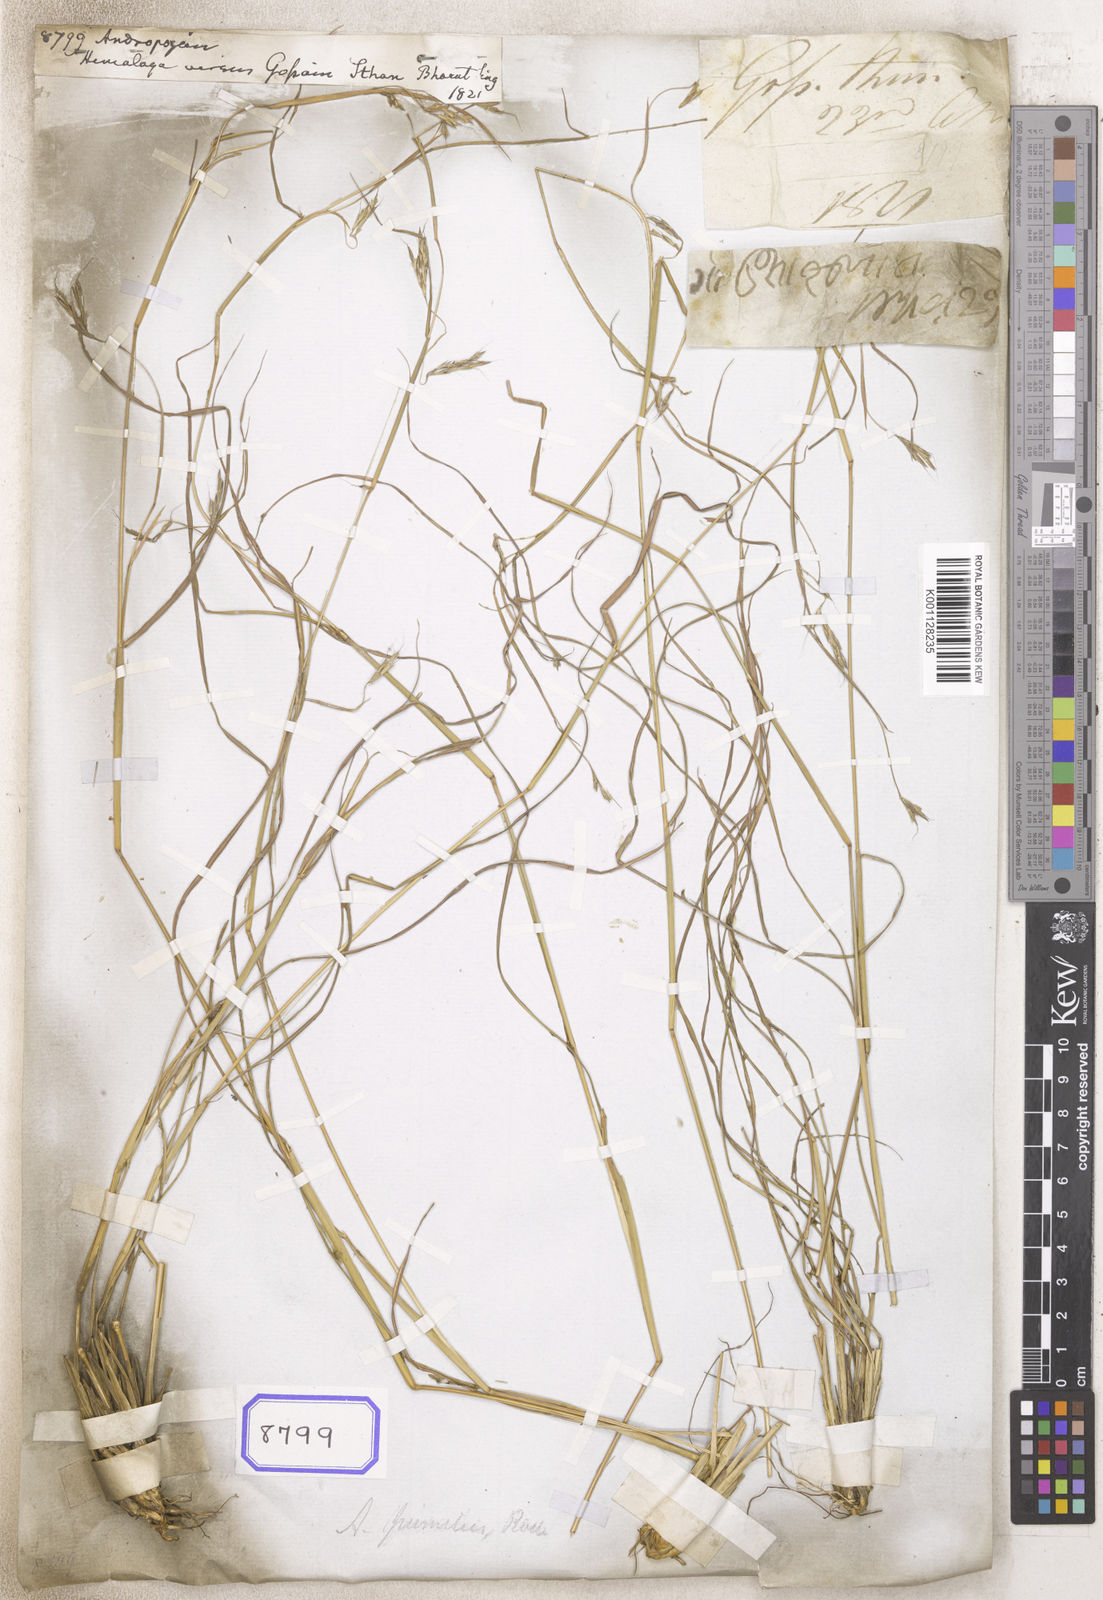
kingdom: Plantae
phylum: Tracheophyta
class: Liliopsida
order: Poales
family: Poaceae
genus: Andropogon
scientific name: Andropogon
